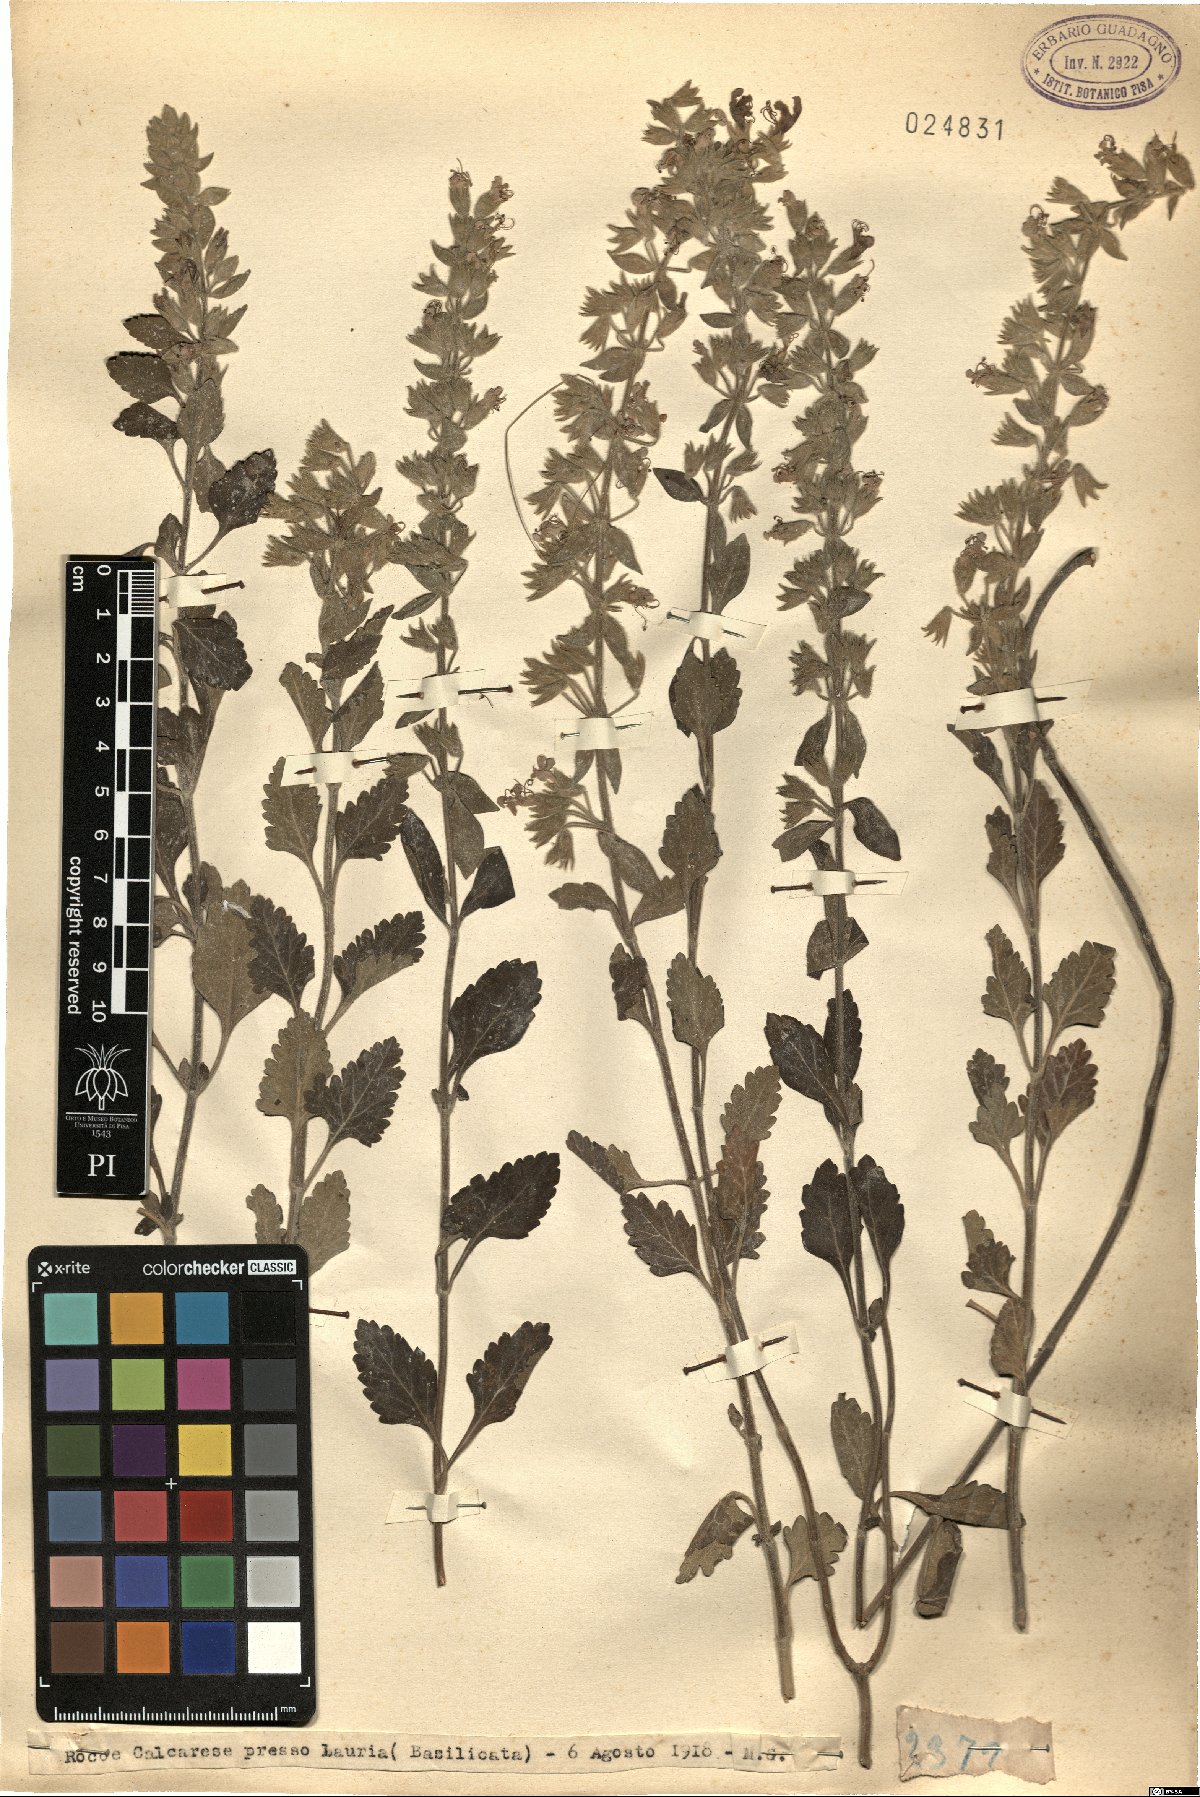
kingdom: Plantae
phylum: Tracheophyta
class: Magnoliopsida
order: Lamiales
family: Lamiaceae
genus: Teucrium
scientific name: Teucrium
